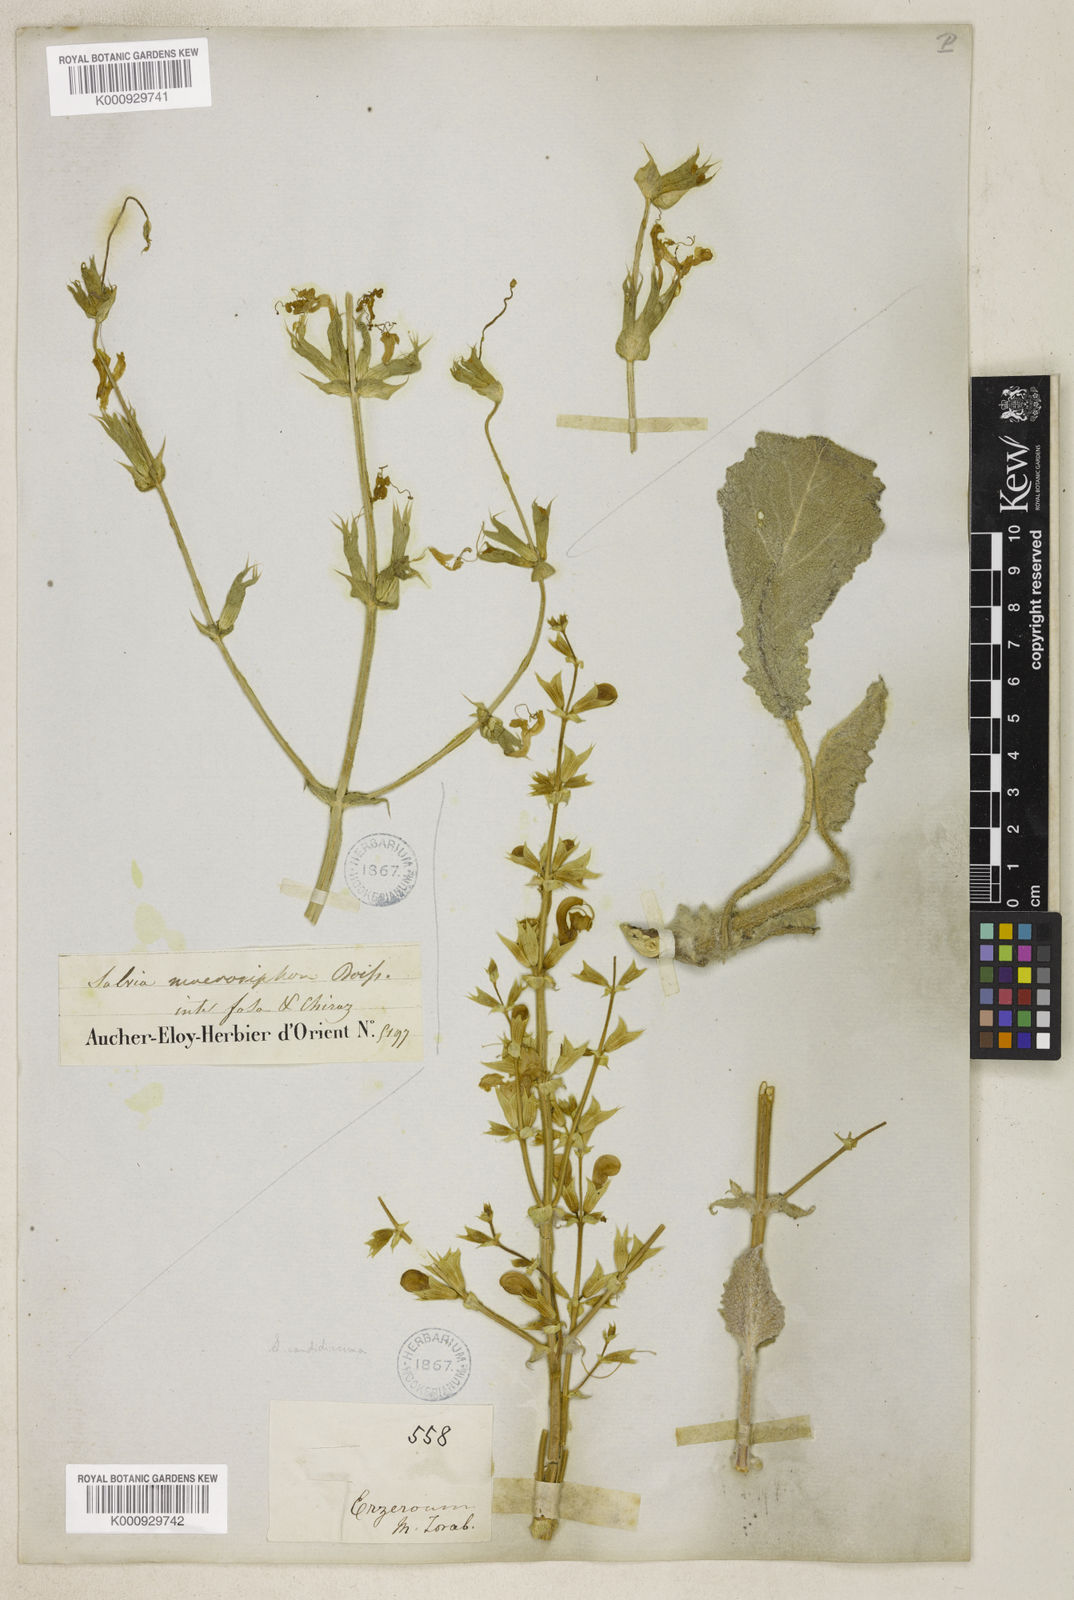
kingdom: Plantae
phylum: Tracheophyta
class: Magnoliopsida
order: Lamiales
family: Lamiaceae
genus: Salvia
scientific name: Salvia macrosiphon
